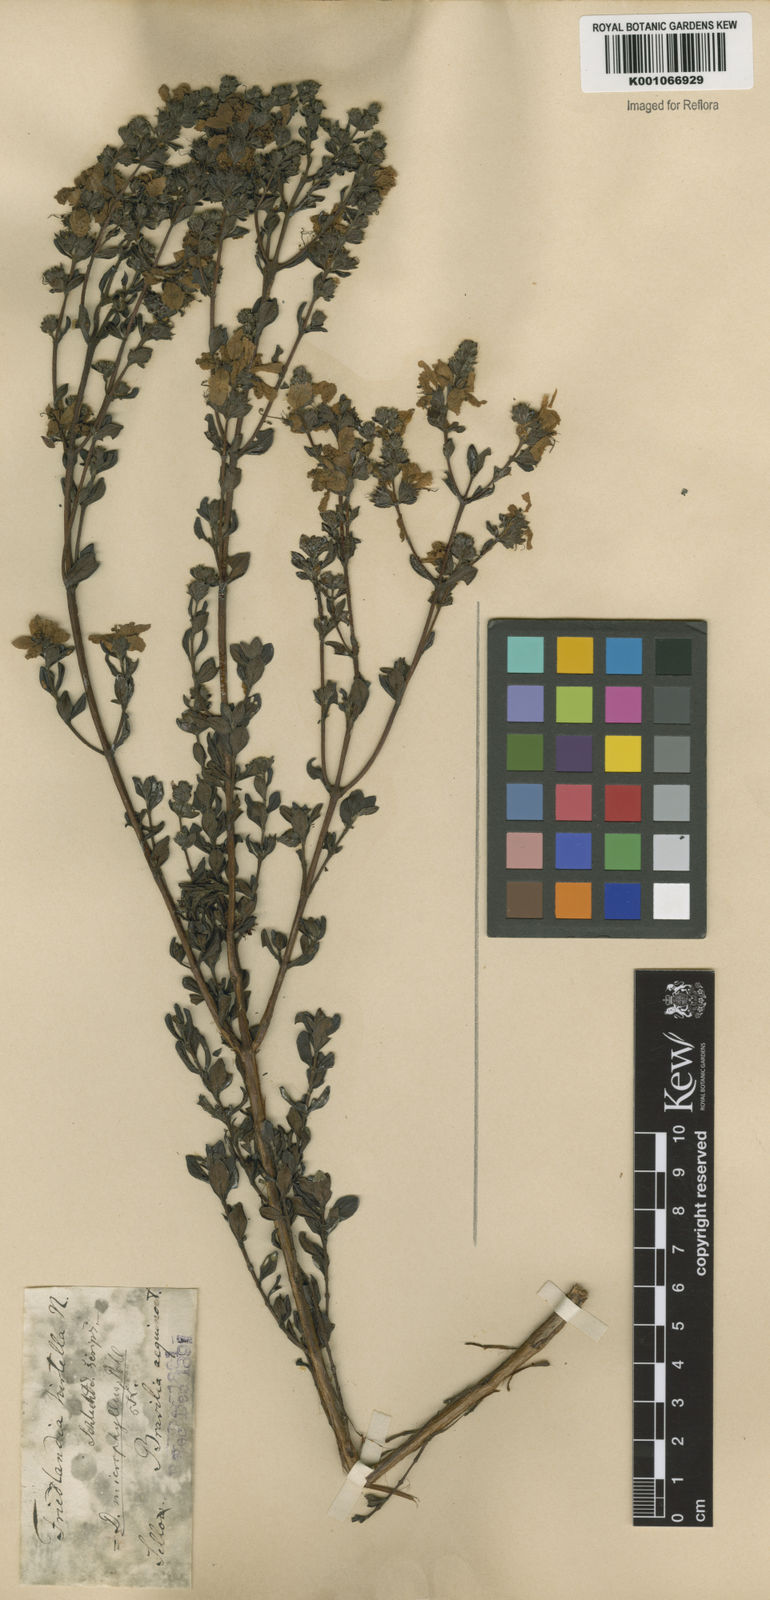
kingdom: Plantae
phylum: Tracheophyta
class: Magnoliopsida
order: Myrtales
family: Lythraceae
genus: Diplusodon
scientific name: Diplusodon microphyllus
